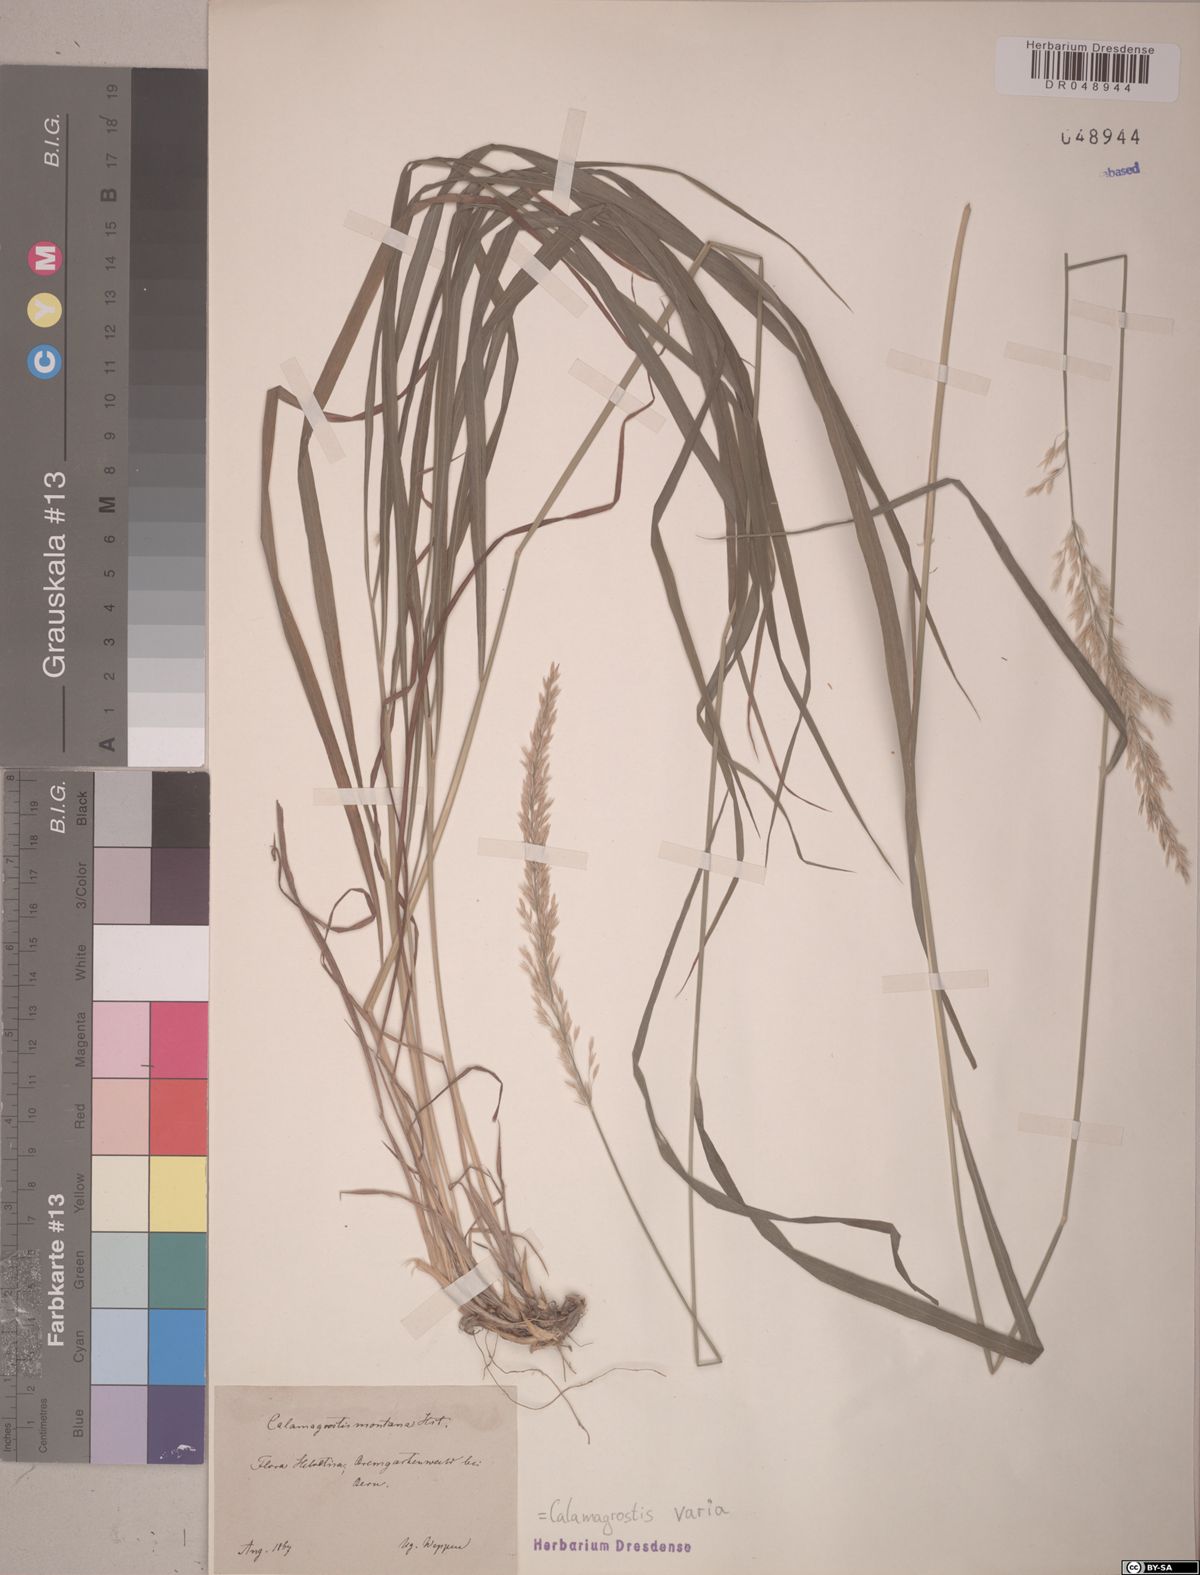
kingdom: Plantae
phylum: Tracheophyta
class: Liliopsida
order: Poales
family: Poaceae
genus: Calamagrostis
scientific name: Calamagrostis varia
